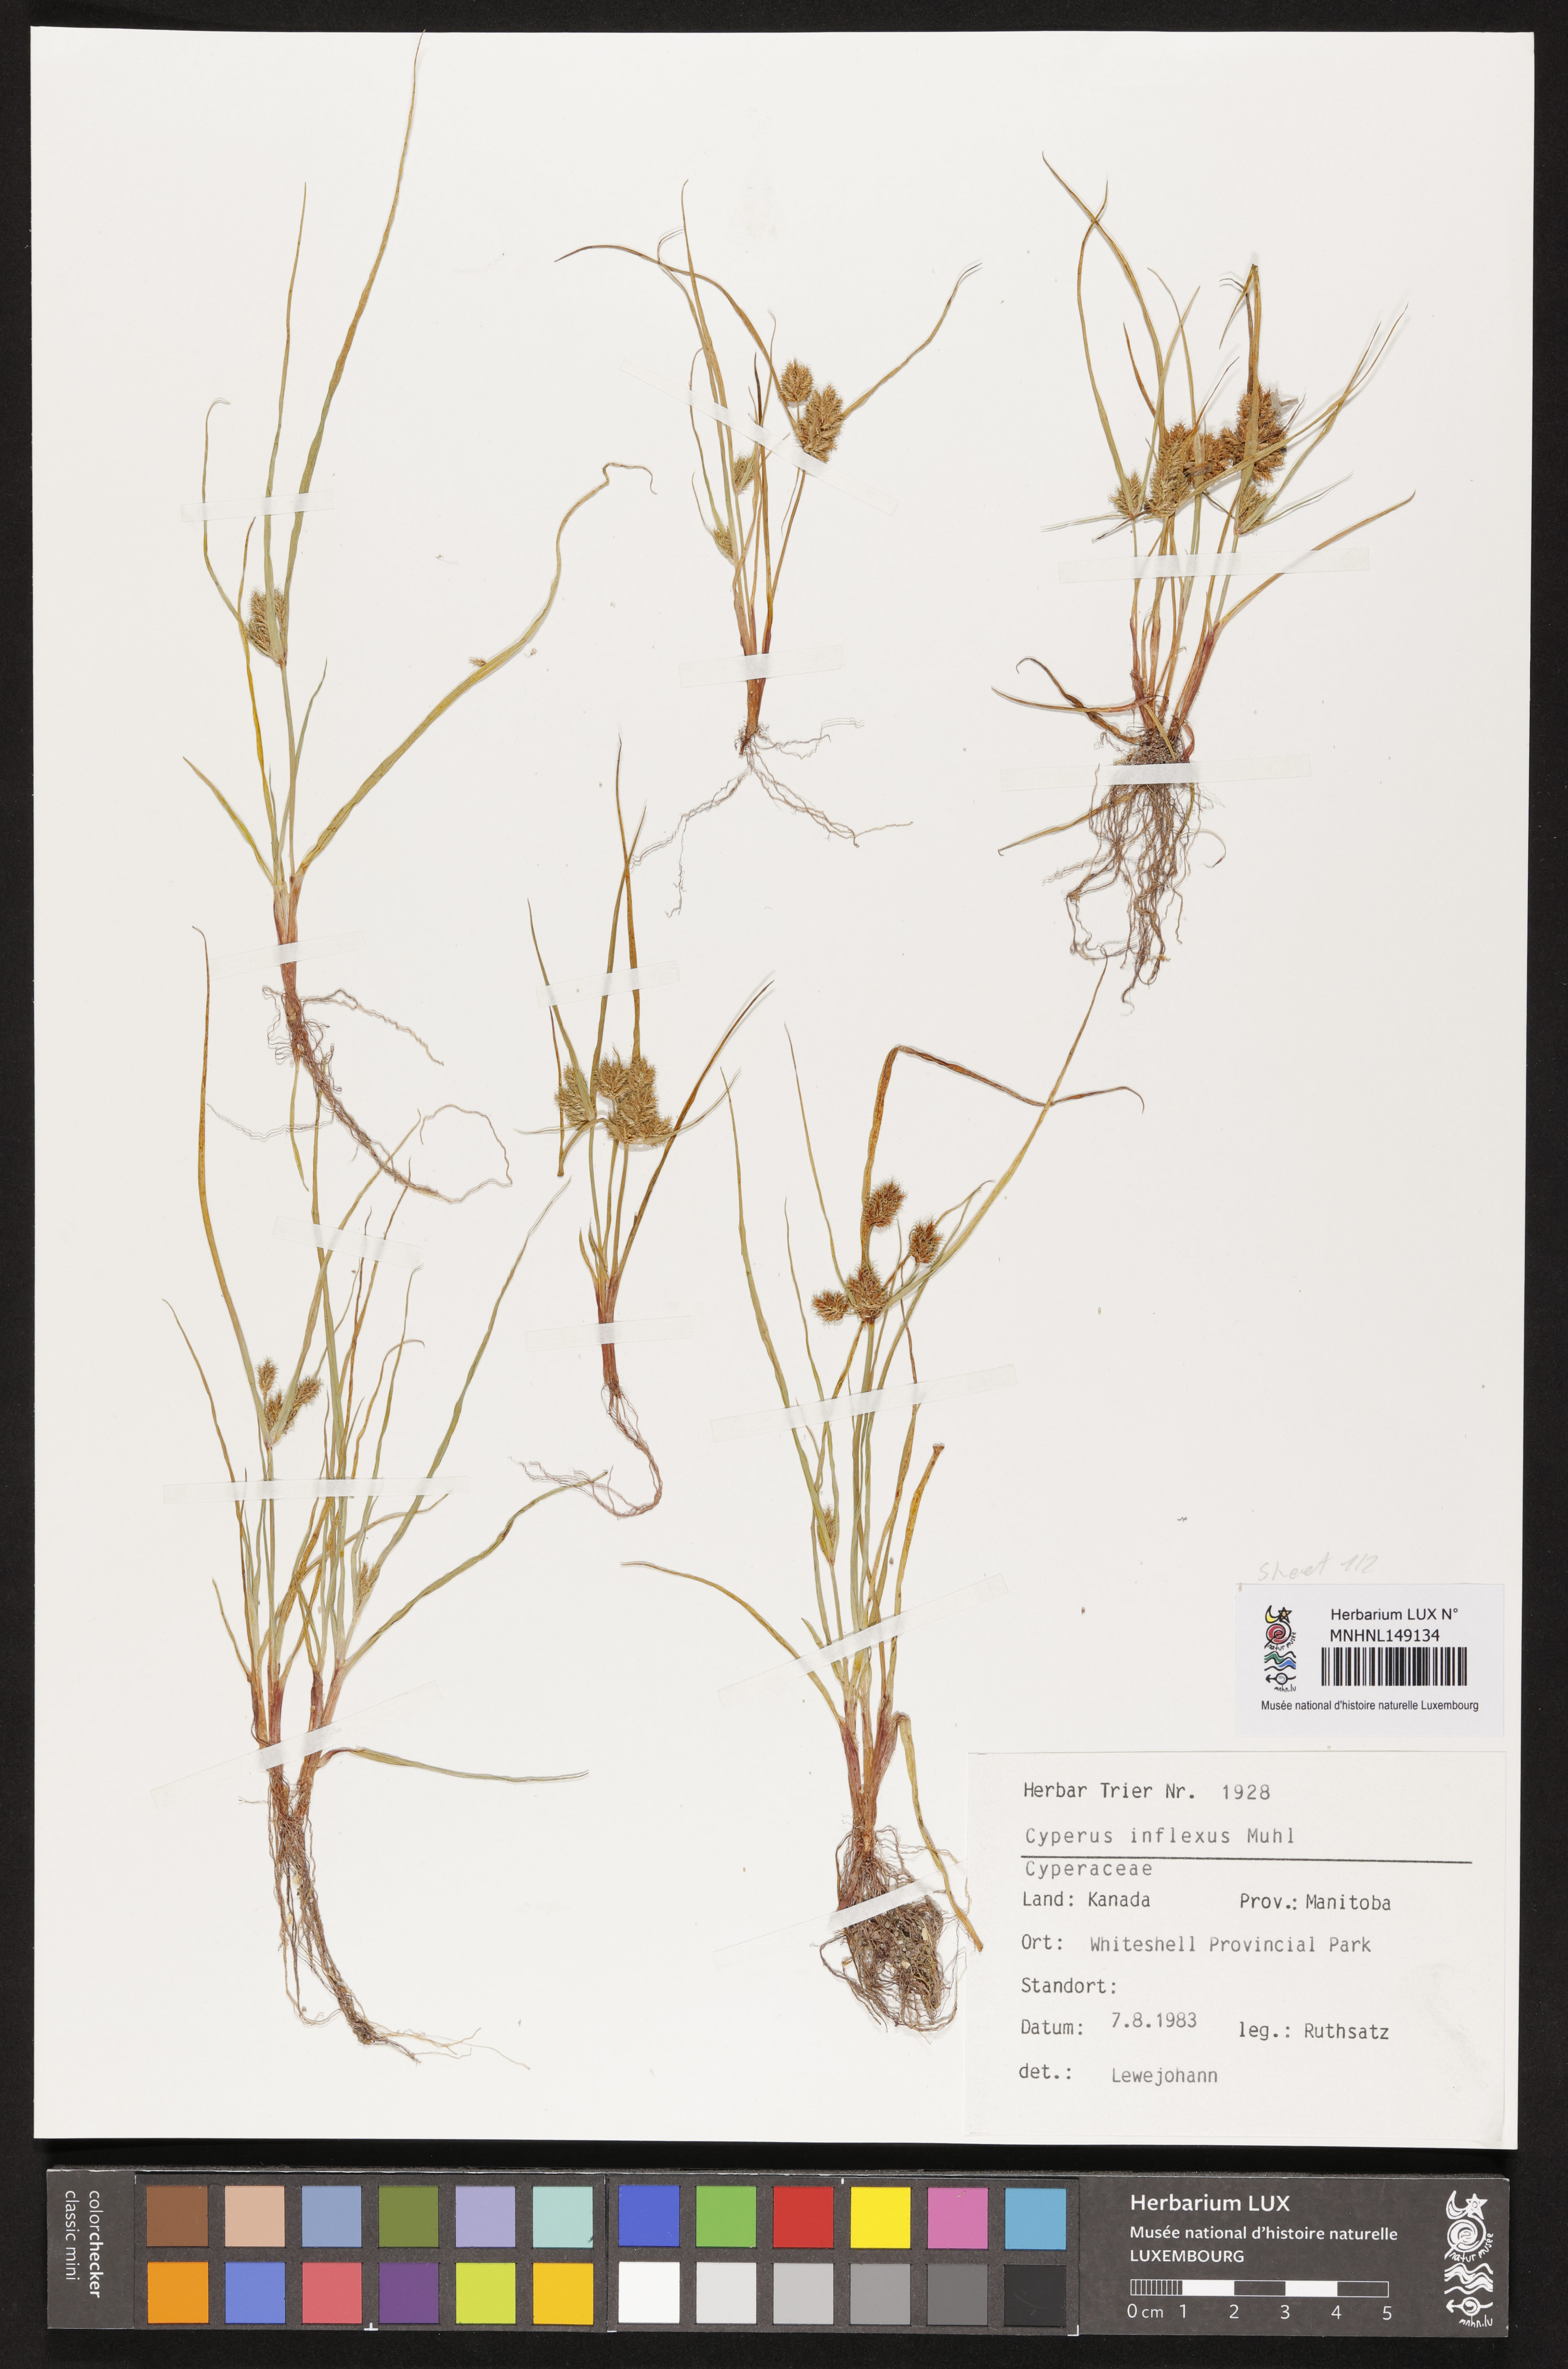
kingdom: Plantae
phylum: Tracheophyta
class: Liliopsida
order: Poales
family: Cyperaceae
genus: Cyperus
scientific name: Cyperus squarrosus
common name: Awned cyperus
